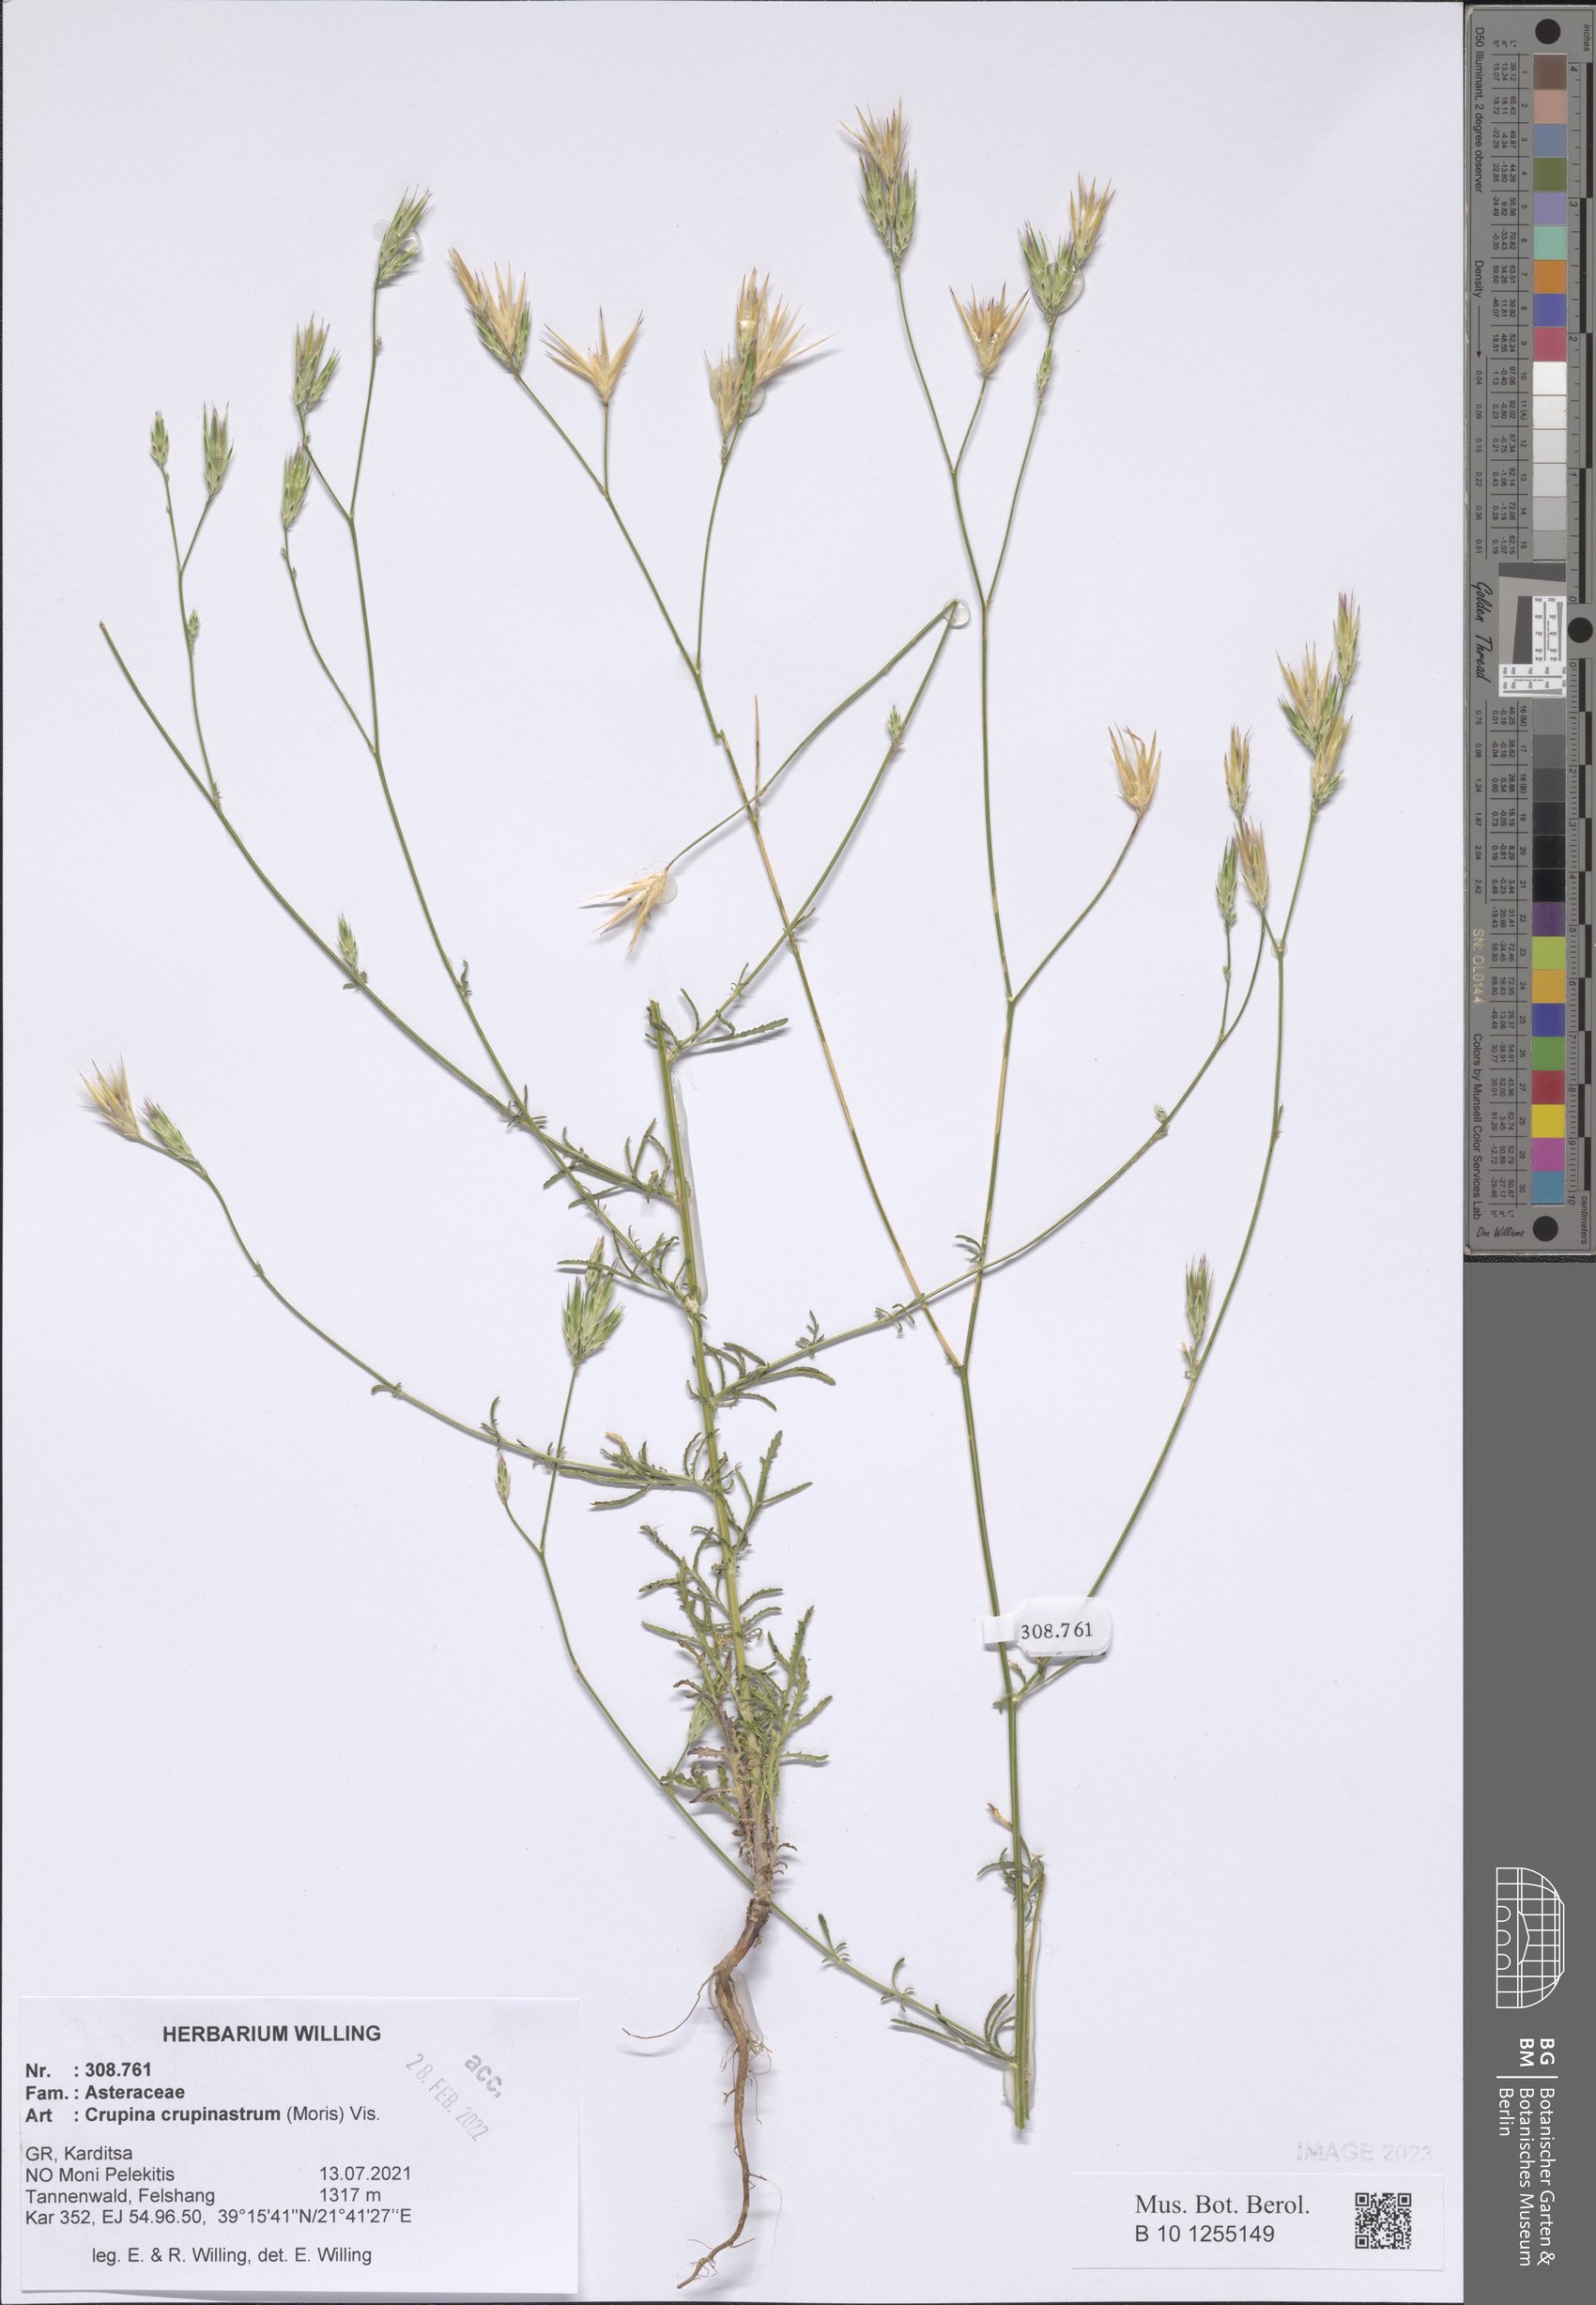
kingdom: Plantae
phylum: Tracheophyta
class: Magnoliopsida
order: Asterales
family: Asteraceae
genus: Crupina
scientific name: Crupina crupinastrum
